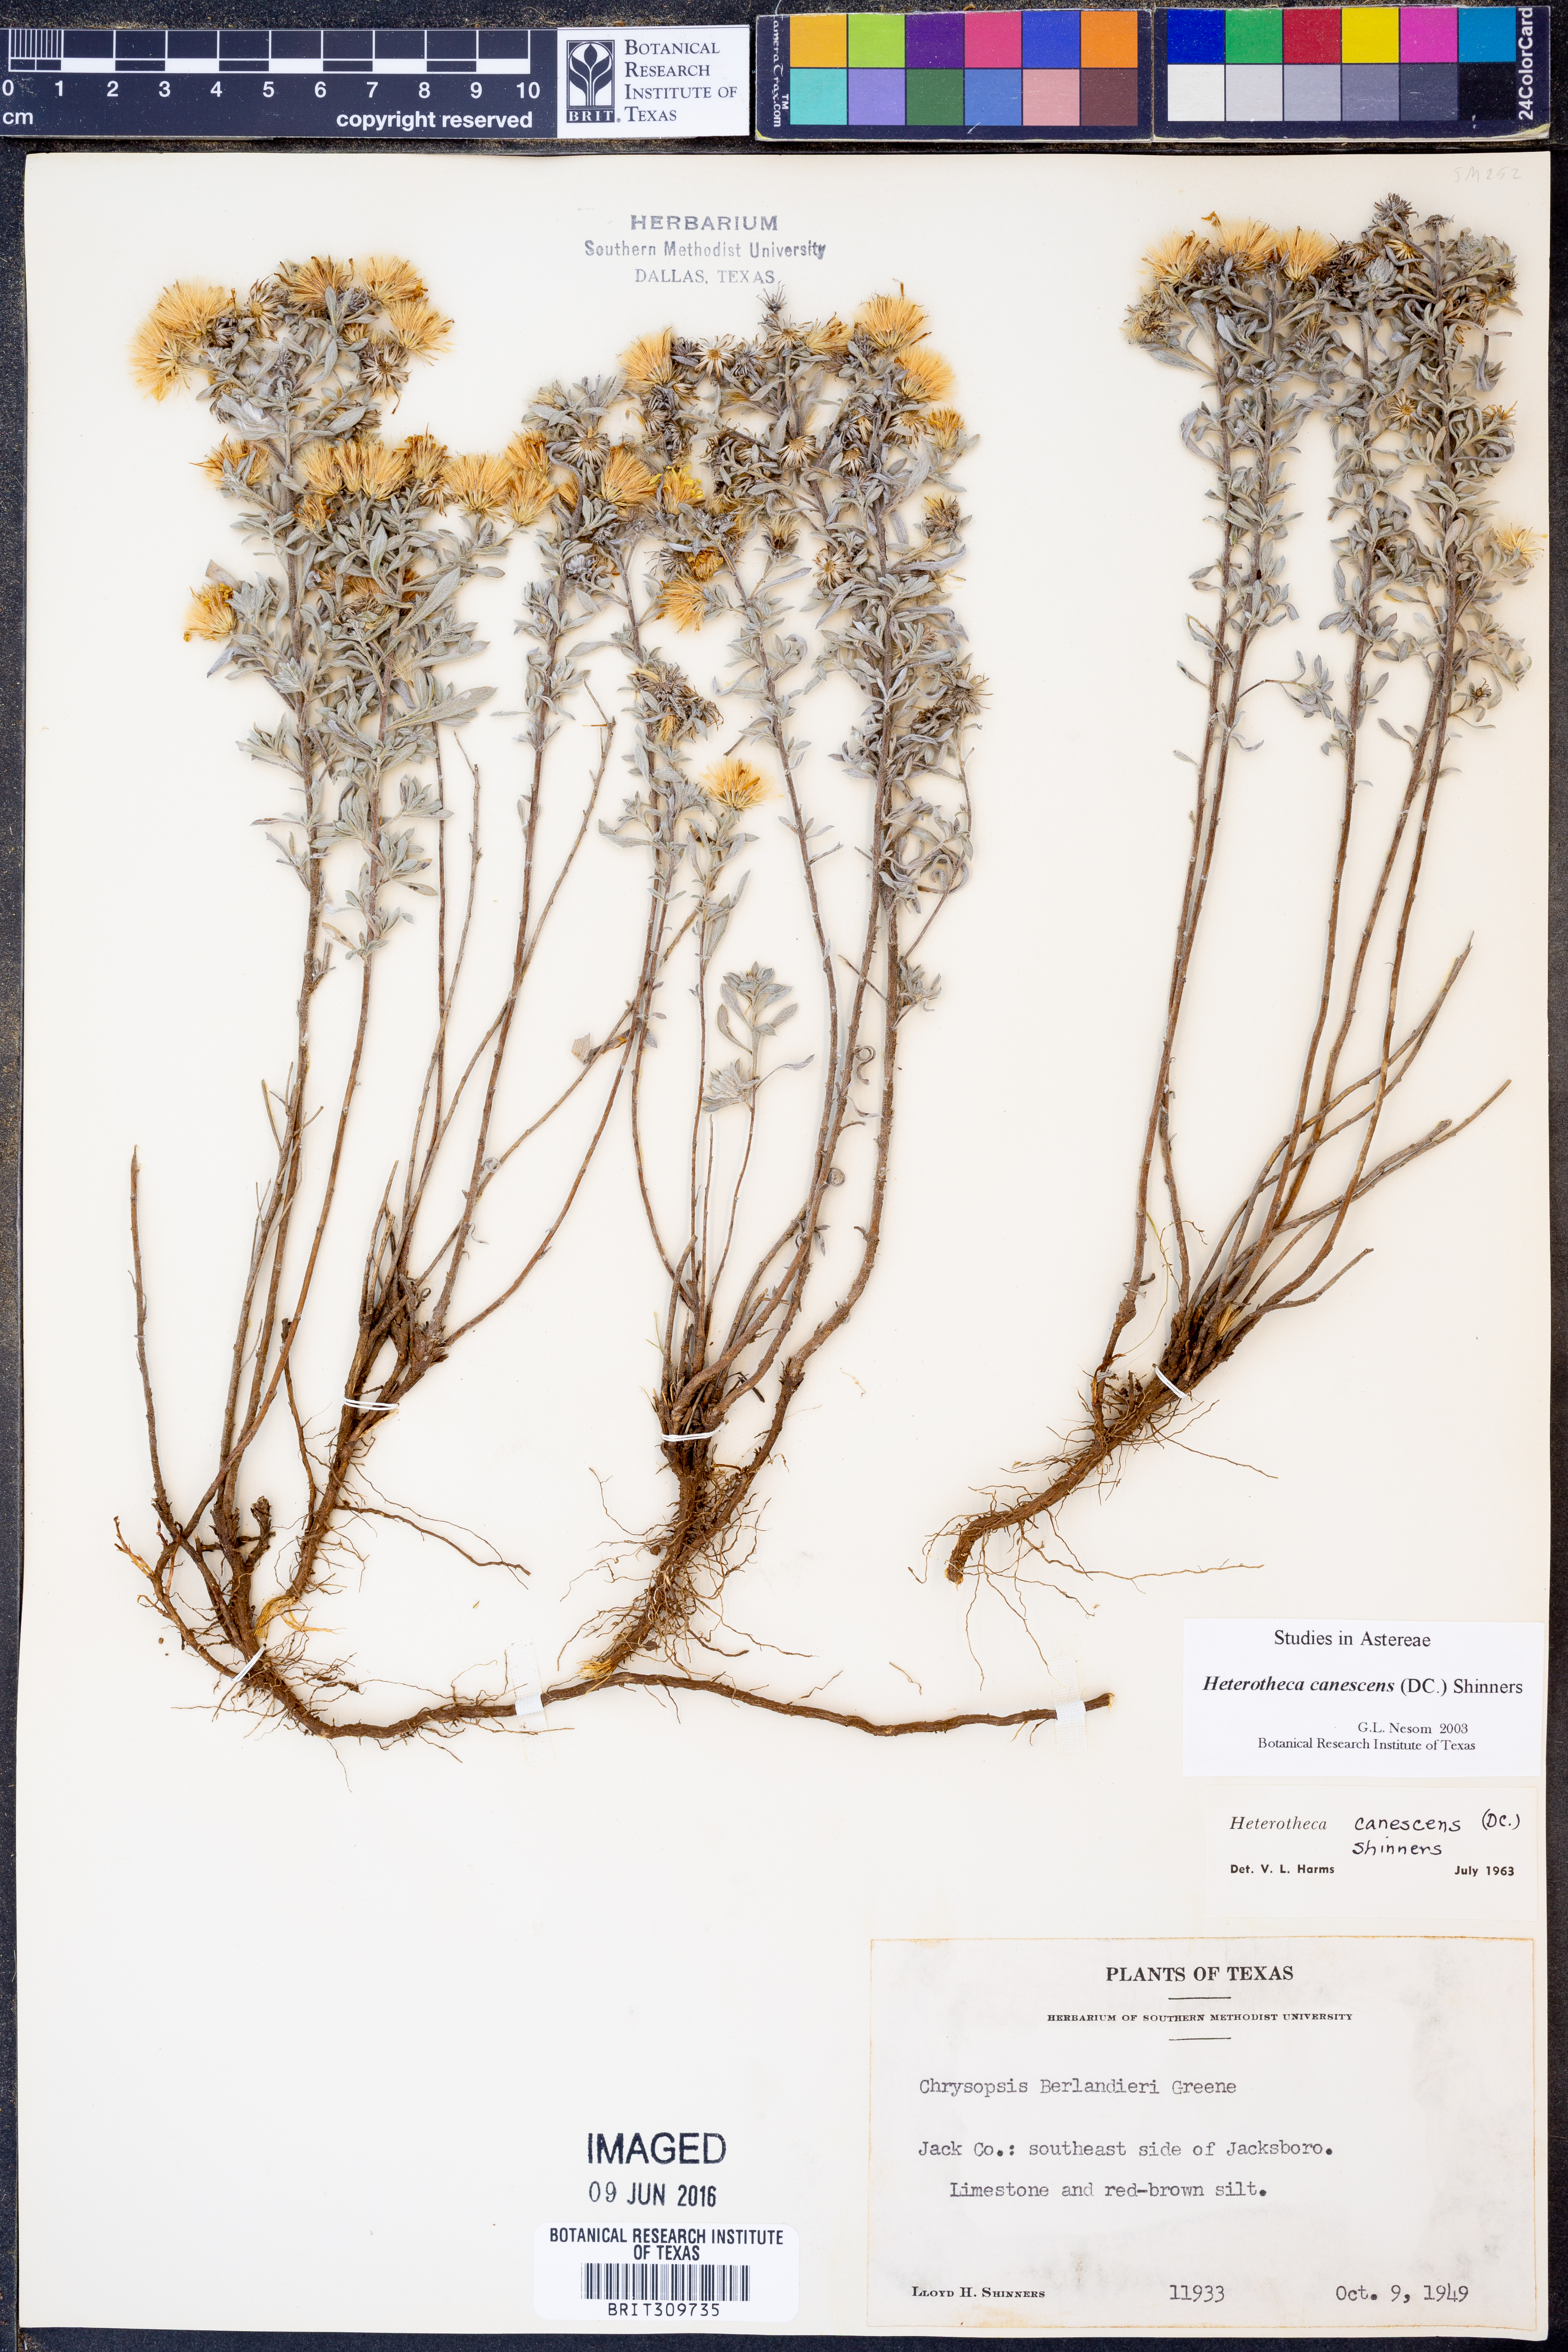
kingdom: Plantae
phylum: Tracheophyta
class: Magnoliopsida
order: Asterales
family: Asteraceae
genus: Heterotheca
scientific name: Heterotheca canescens
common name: Hoary golden-aster
